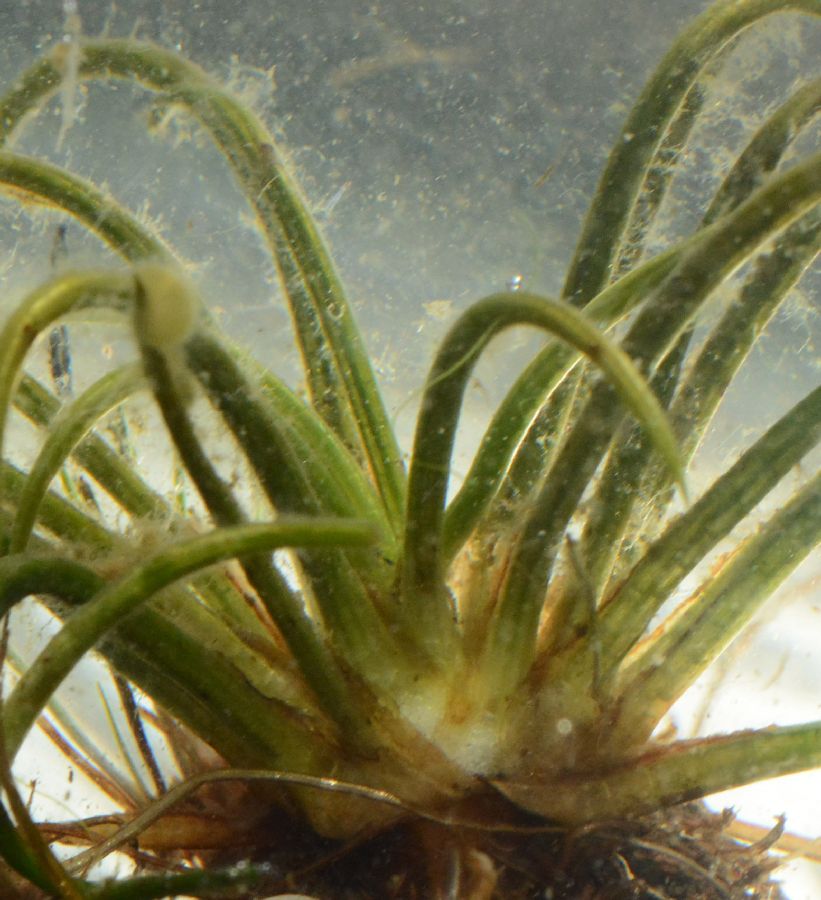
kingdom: Plantae
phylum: Tracheophyta
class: Lycopodiopsida
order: Isoetales
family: Isoetaceae
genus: Isoetes
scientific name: Isoetes lacustris
